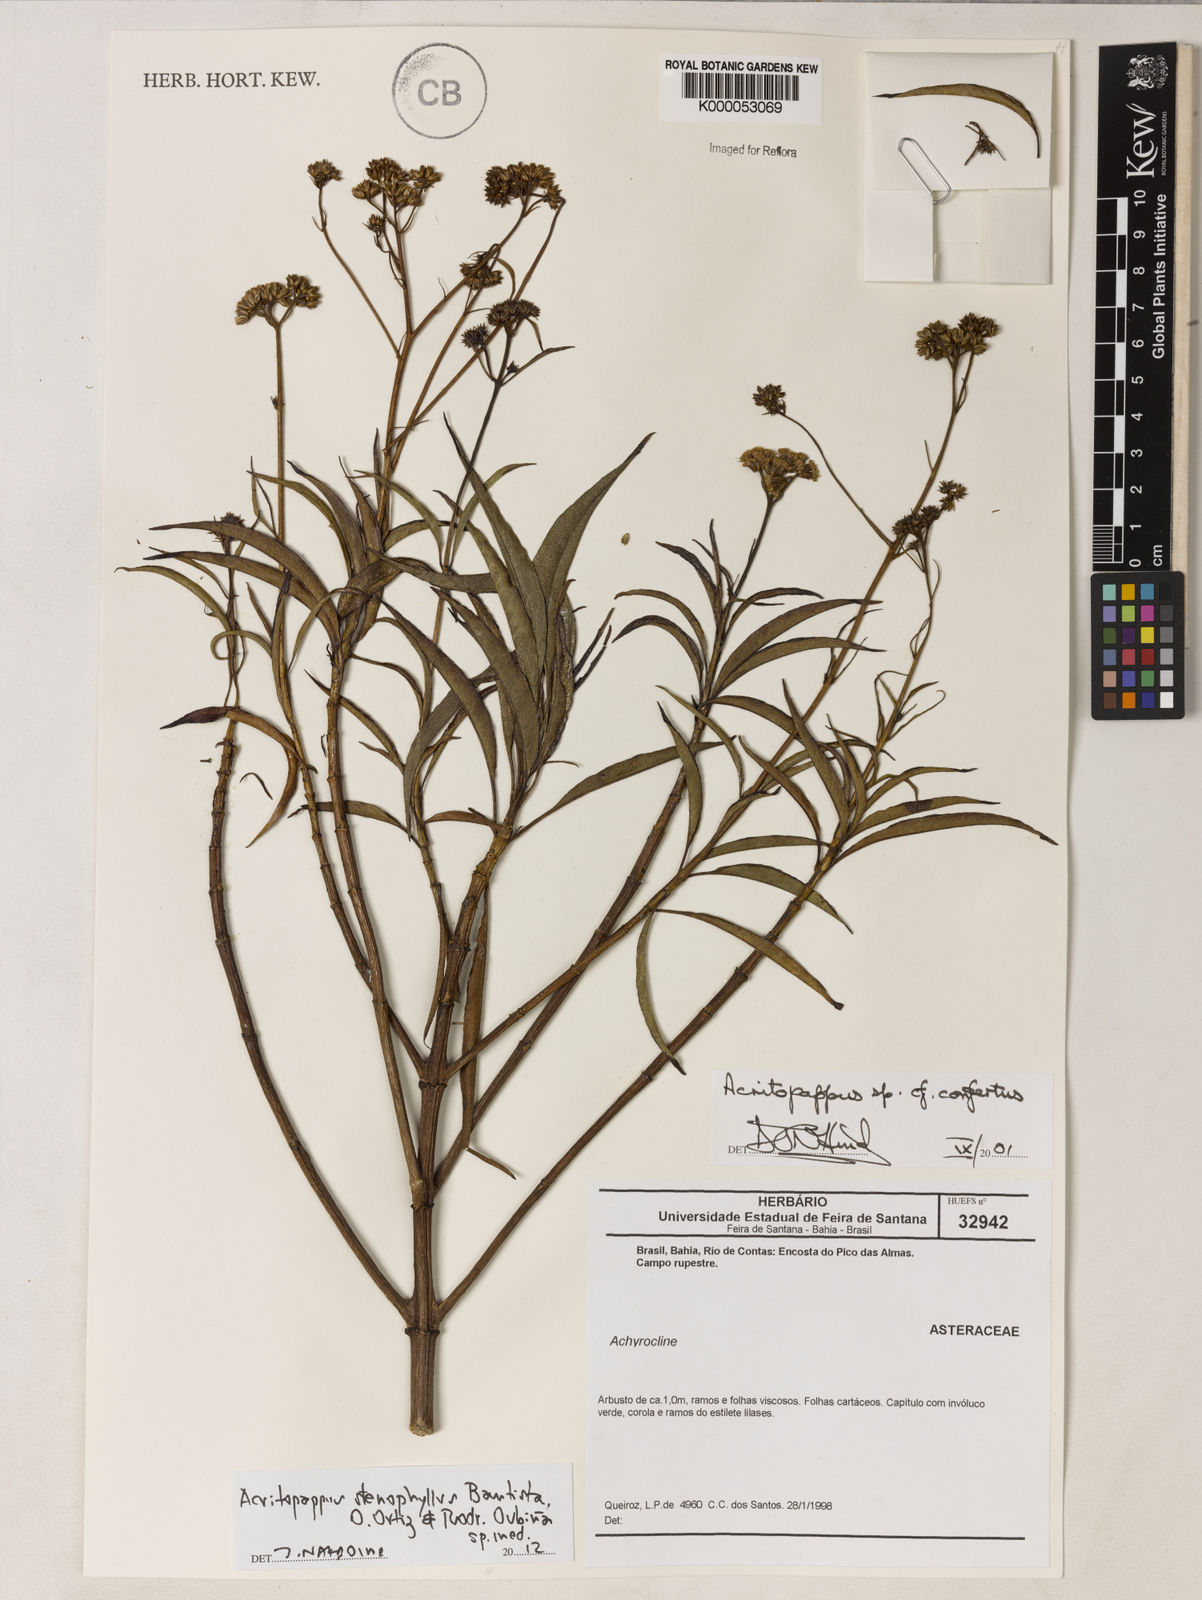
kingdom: Plantae
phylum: Tracheophyta
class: Magnoliopsida
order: Asterales
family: Asteraceae
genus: Acritopappus
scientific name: Acritopappus confertus
